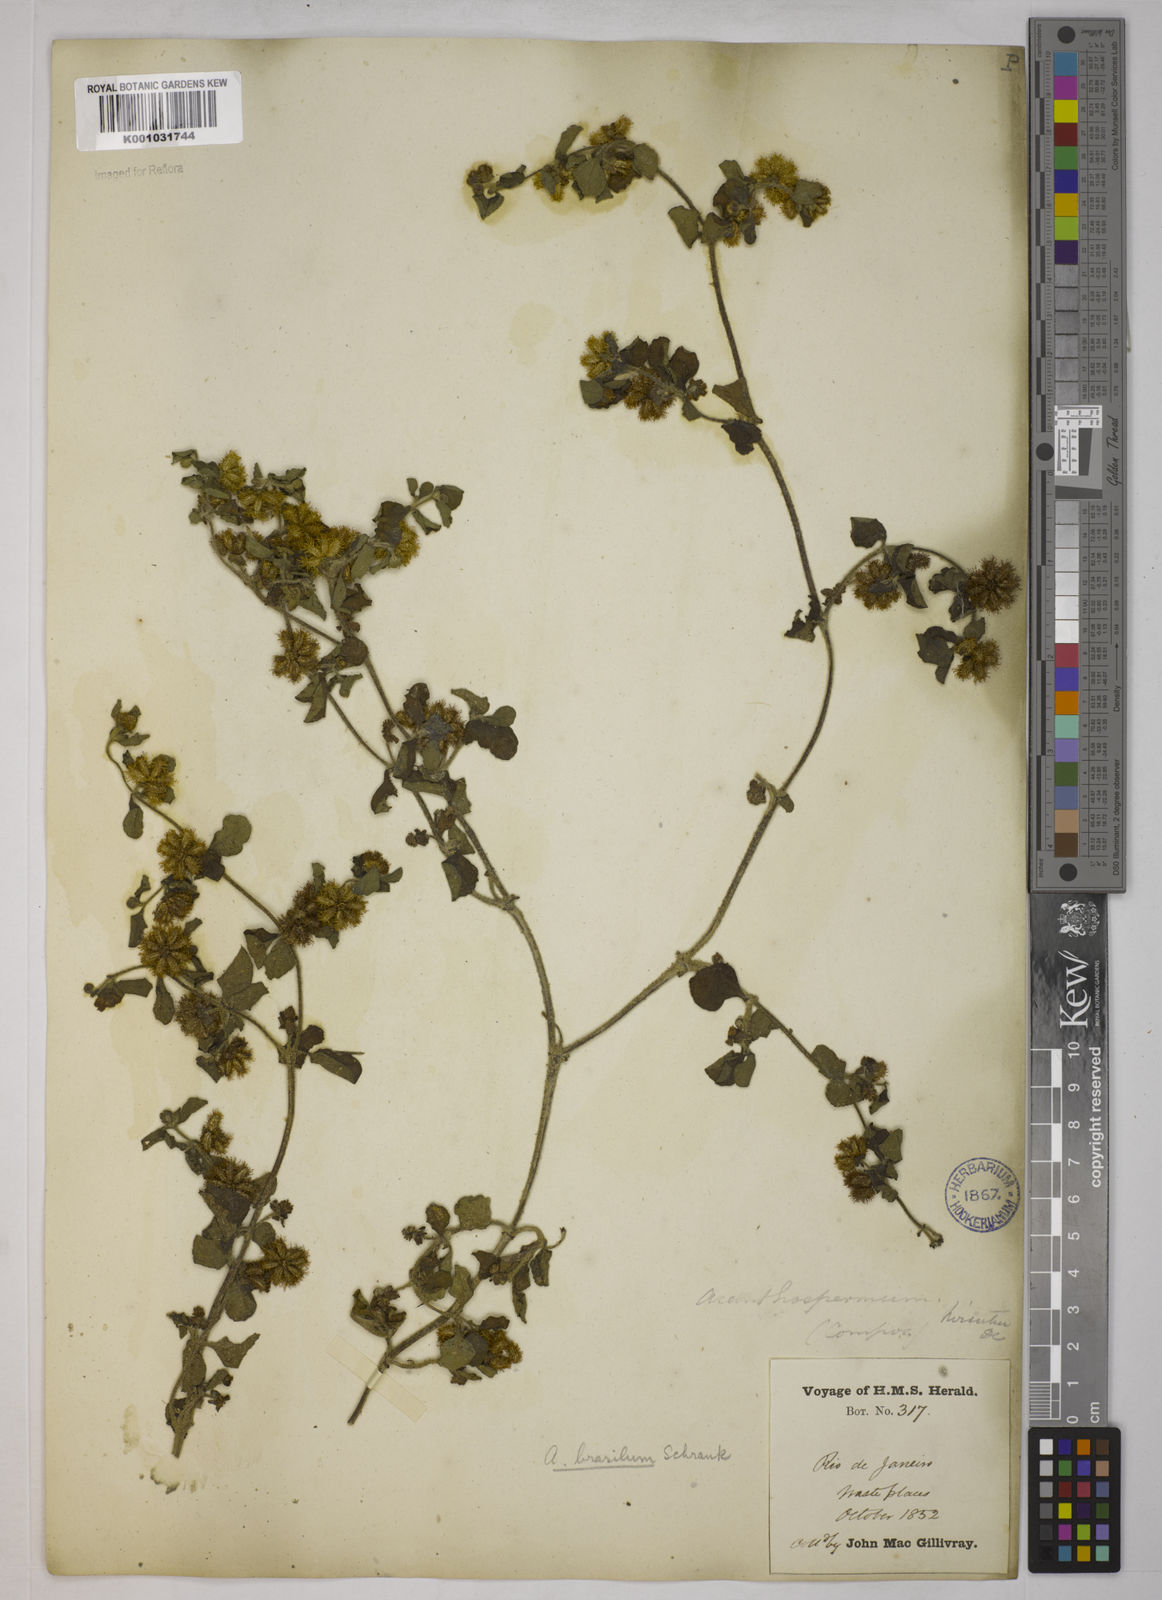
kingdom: Plantae
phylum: Tracheophyta
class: Magnoliopsida
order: Asterales
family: Asteraceae
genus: Acanthospermum
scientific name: Acanthospermum australe
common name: Paraguayan starbur
